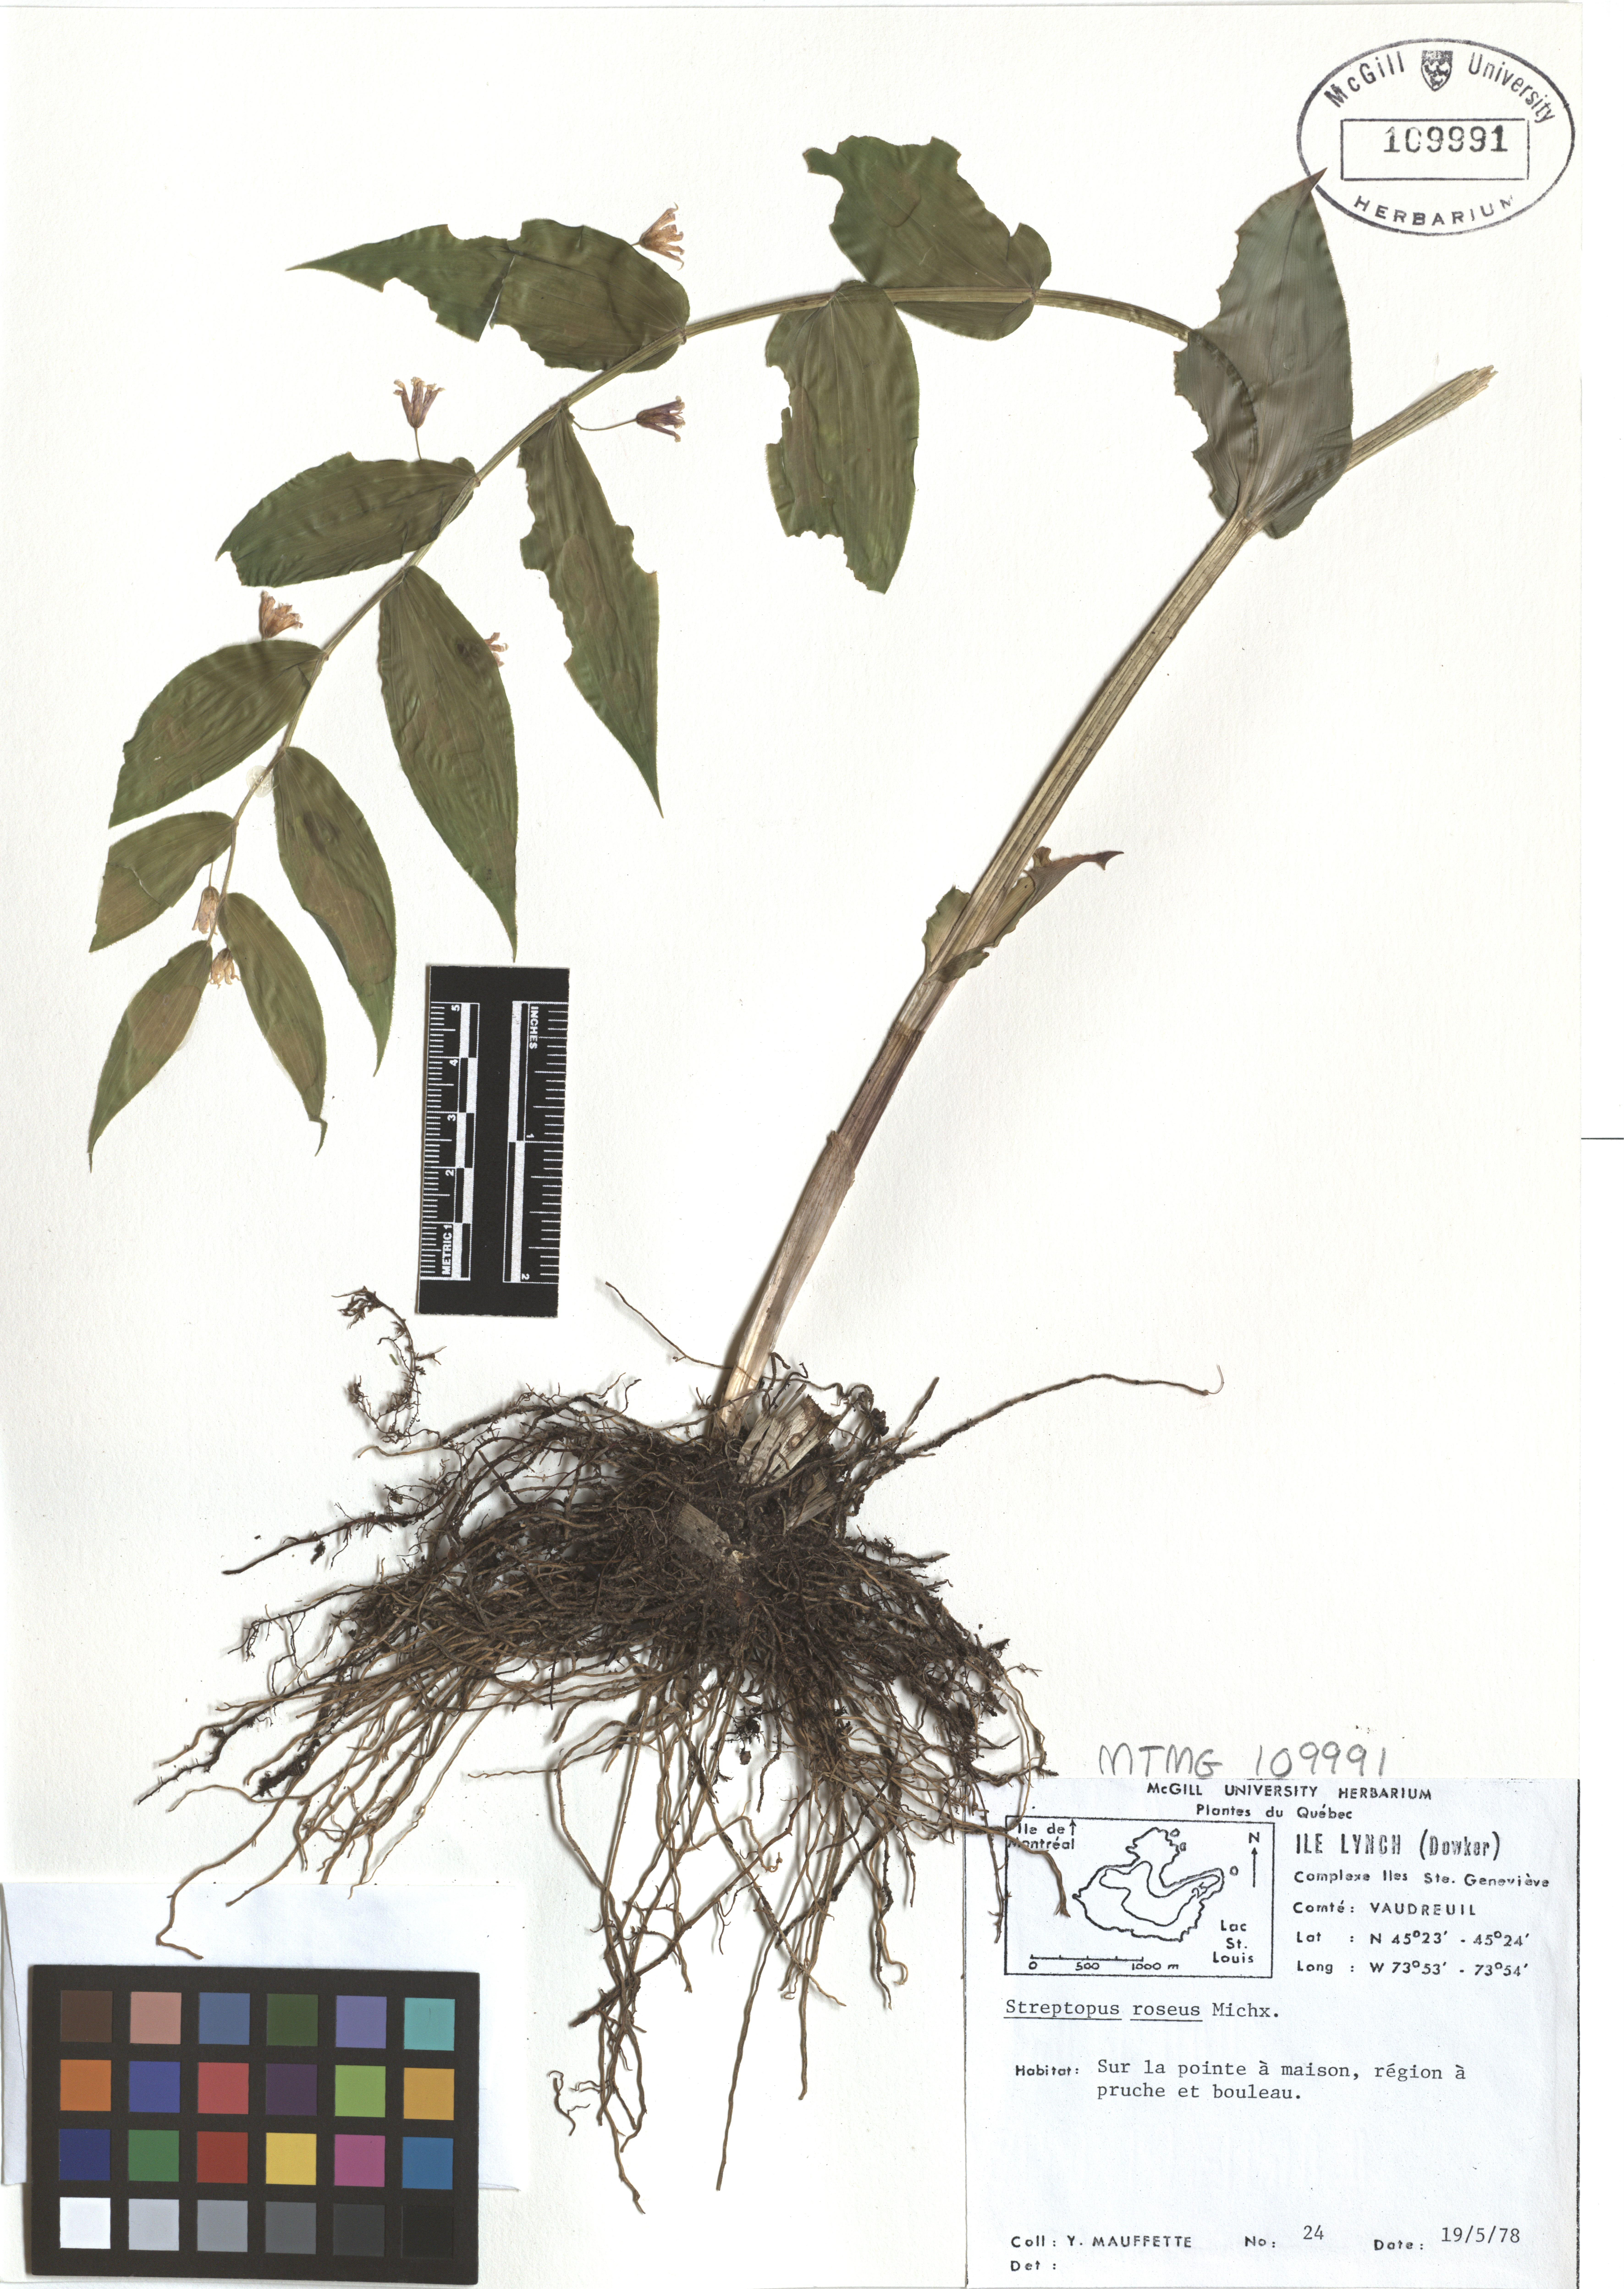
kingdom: Plantae
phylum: Tracheophyta
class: Liliopsida
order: Liliales
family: Liliaceae
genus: Streptopus
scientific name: Streptopus lanceolatus
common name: Rose mandarin
